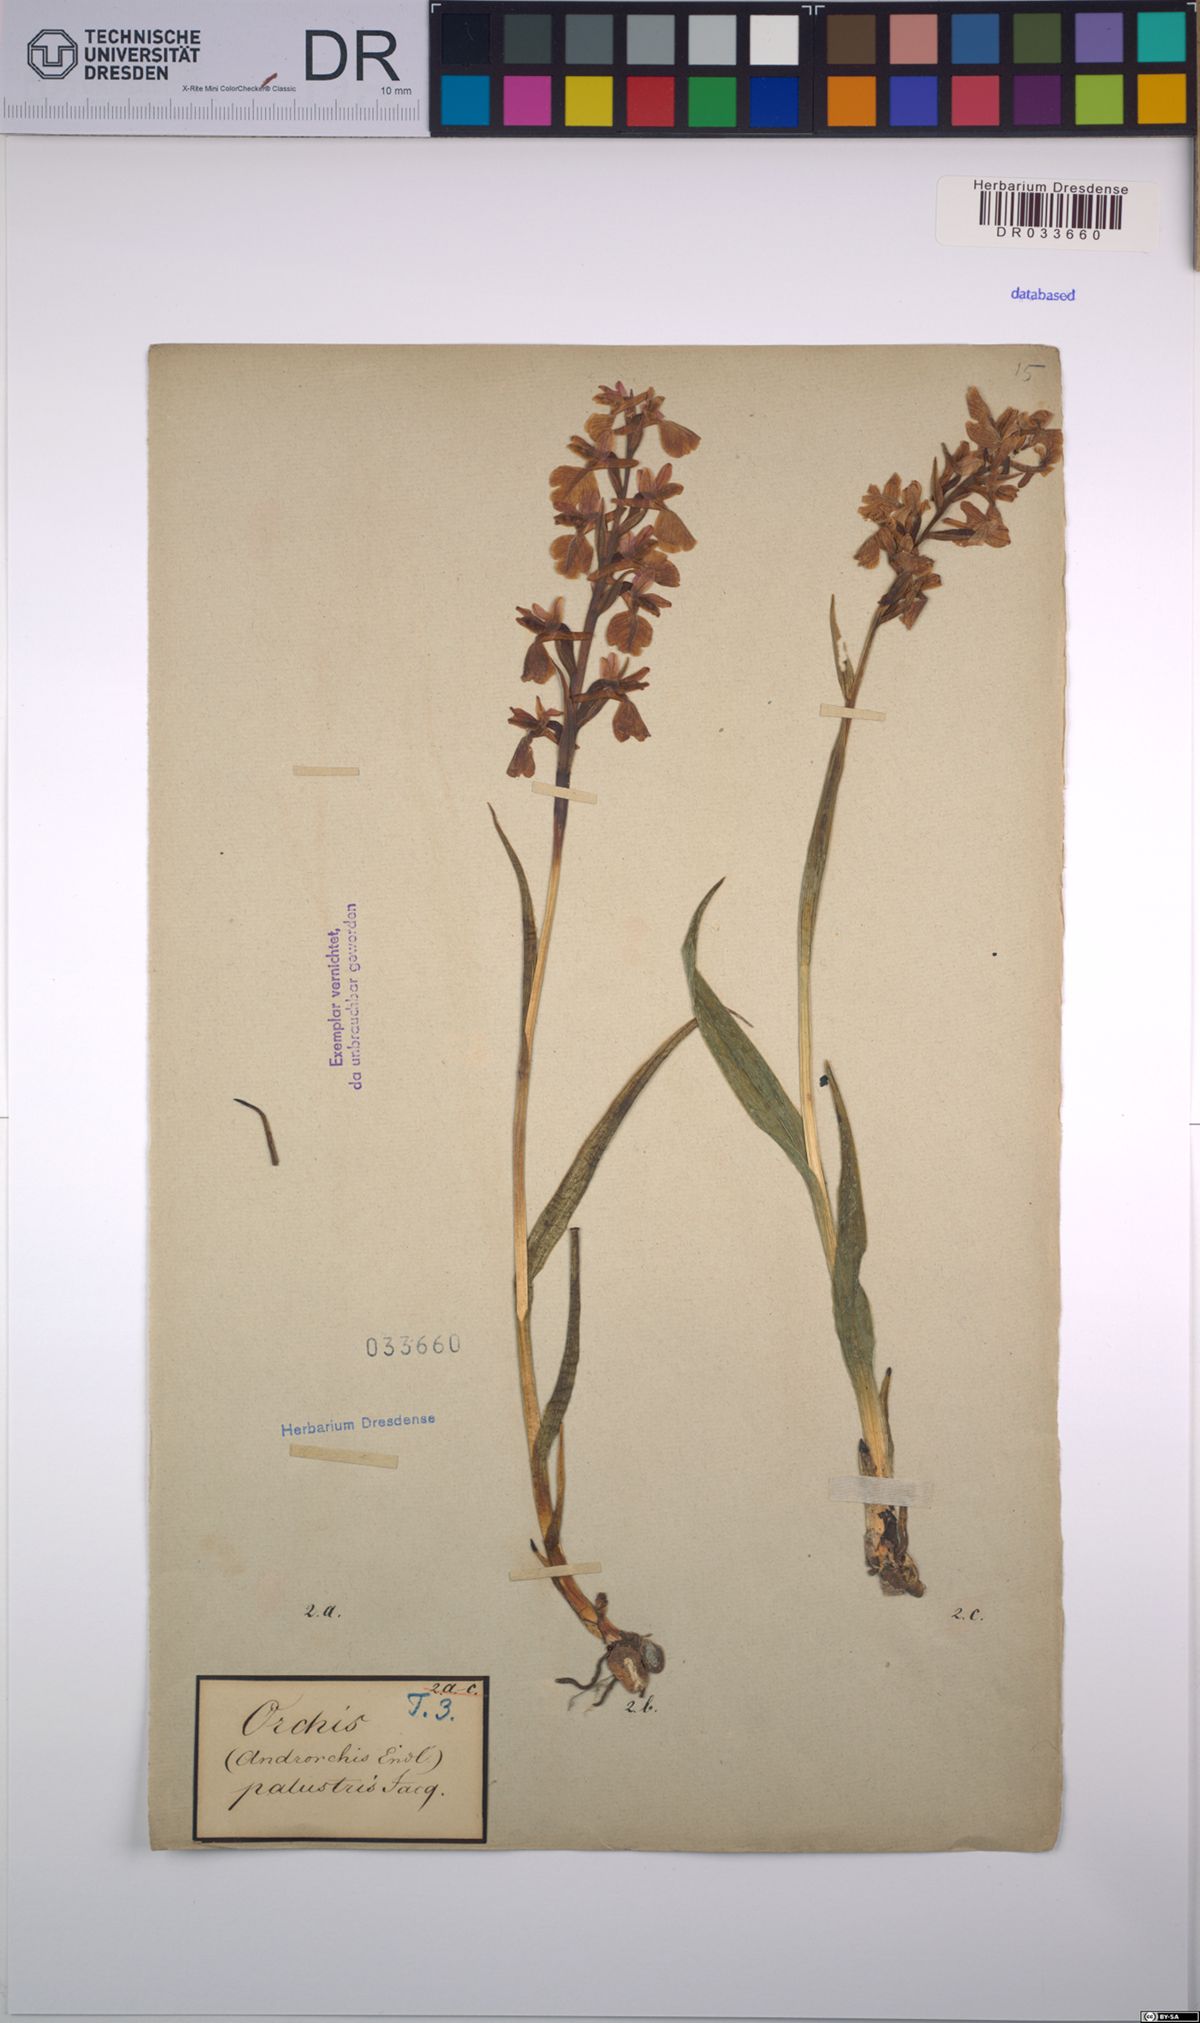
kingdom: Plantae
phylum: Tracheophyta
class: Liliopsida
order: Asparagales
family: Orchidaceae
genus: Anacamptis
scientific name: Anacamptis palustris
